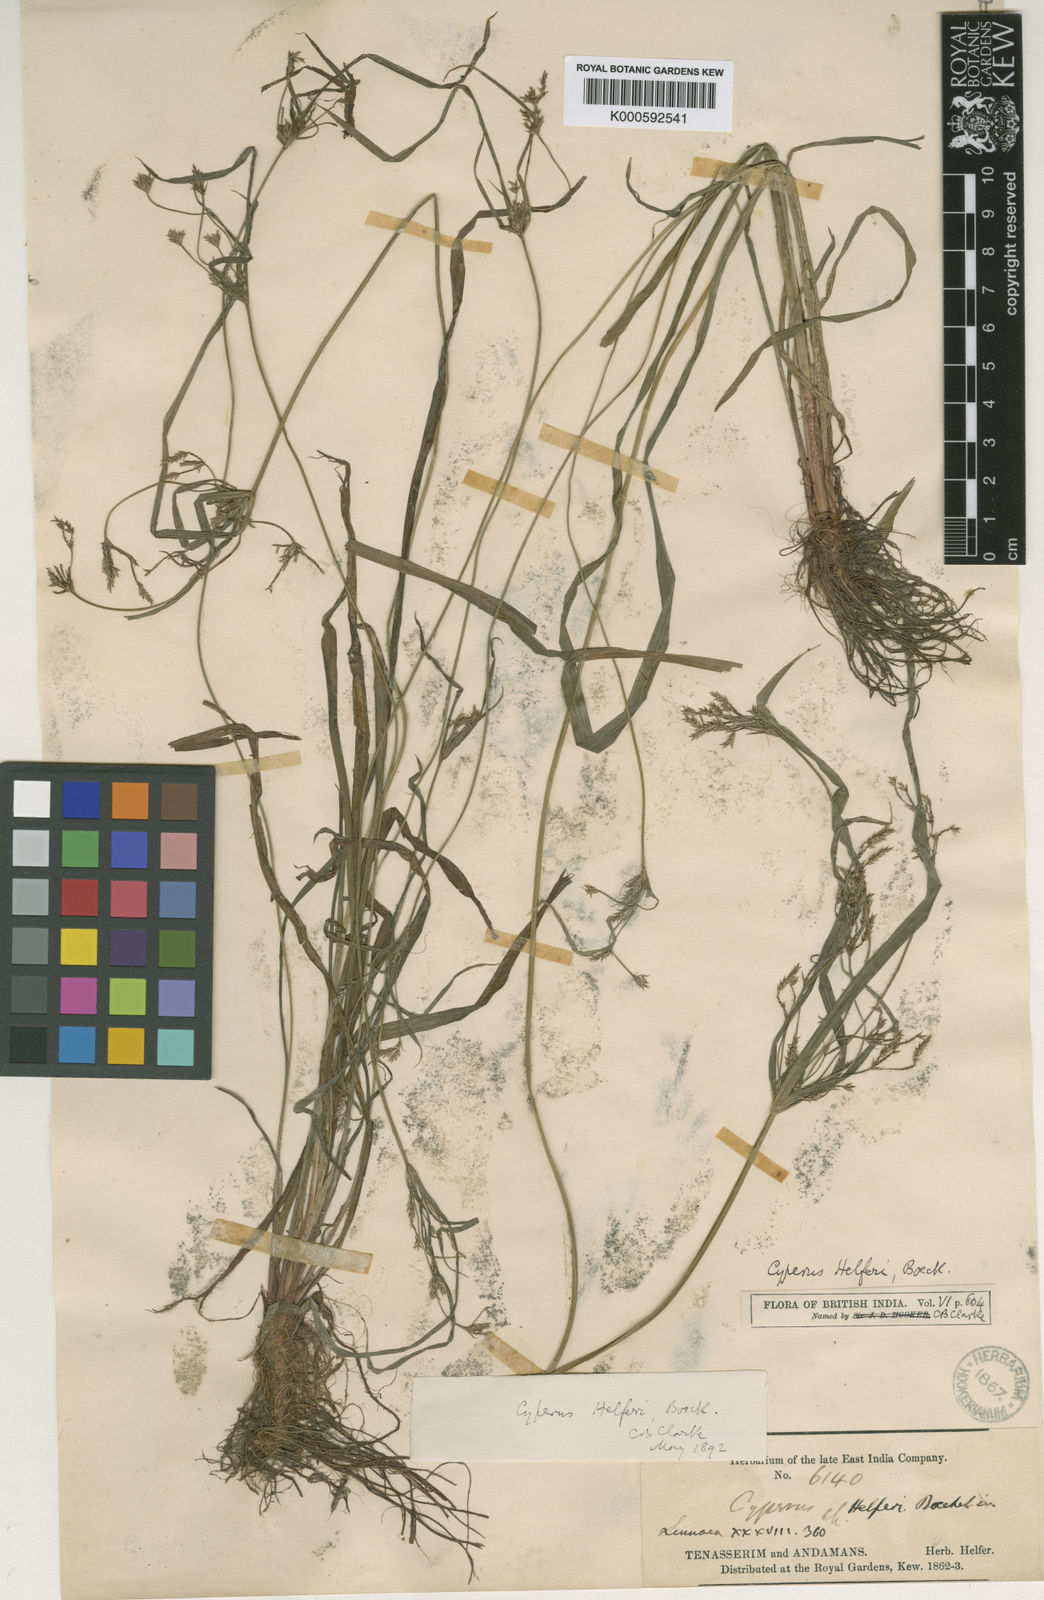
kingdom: Plantae
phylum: Tracheophyta
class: Liliopsida
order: Poales
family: Cyperaceae
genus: Cyperus
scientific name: Cyperus helferi
